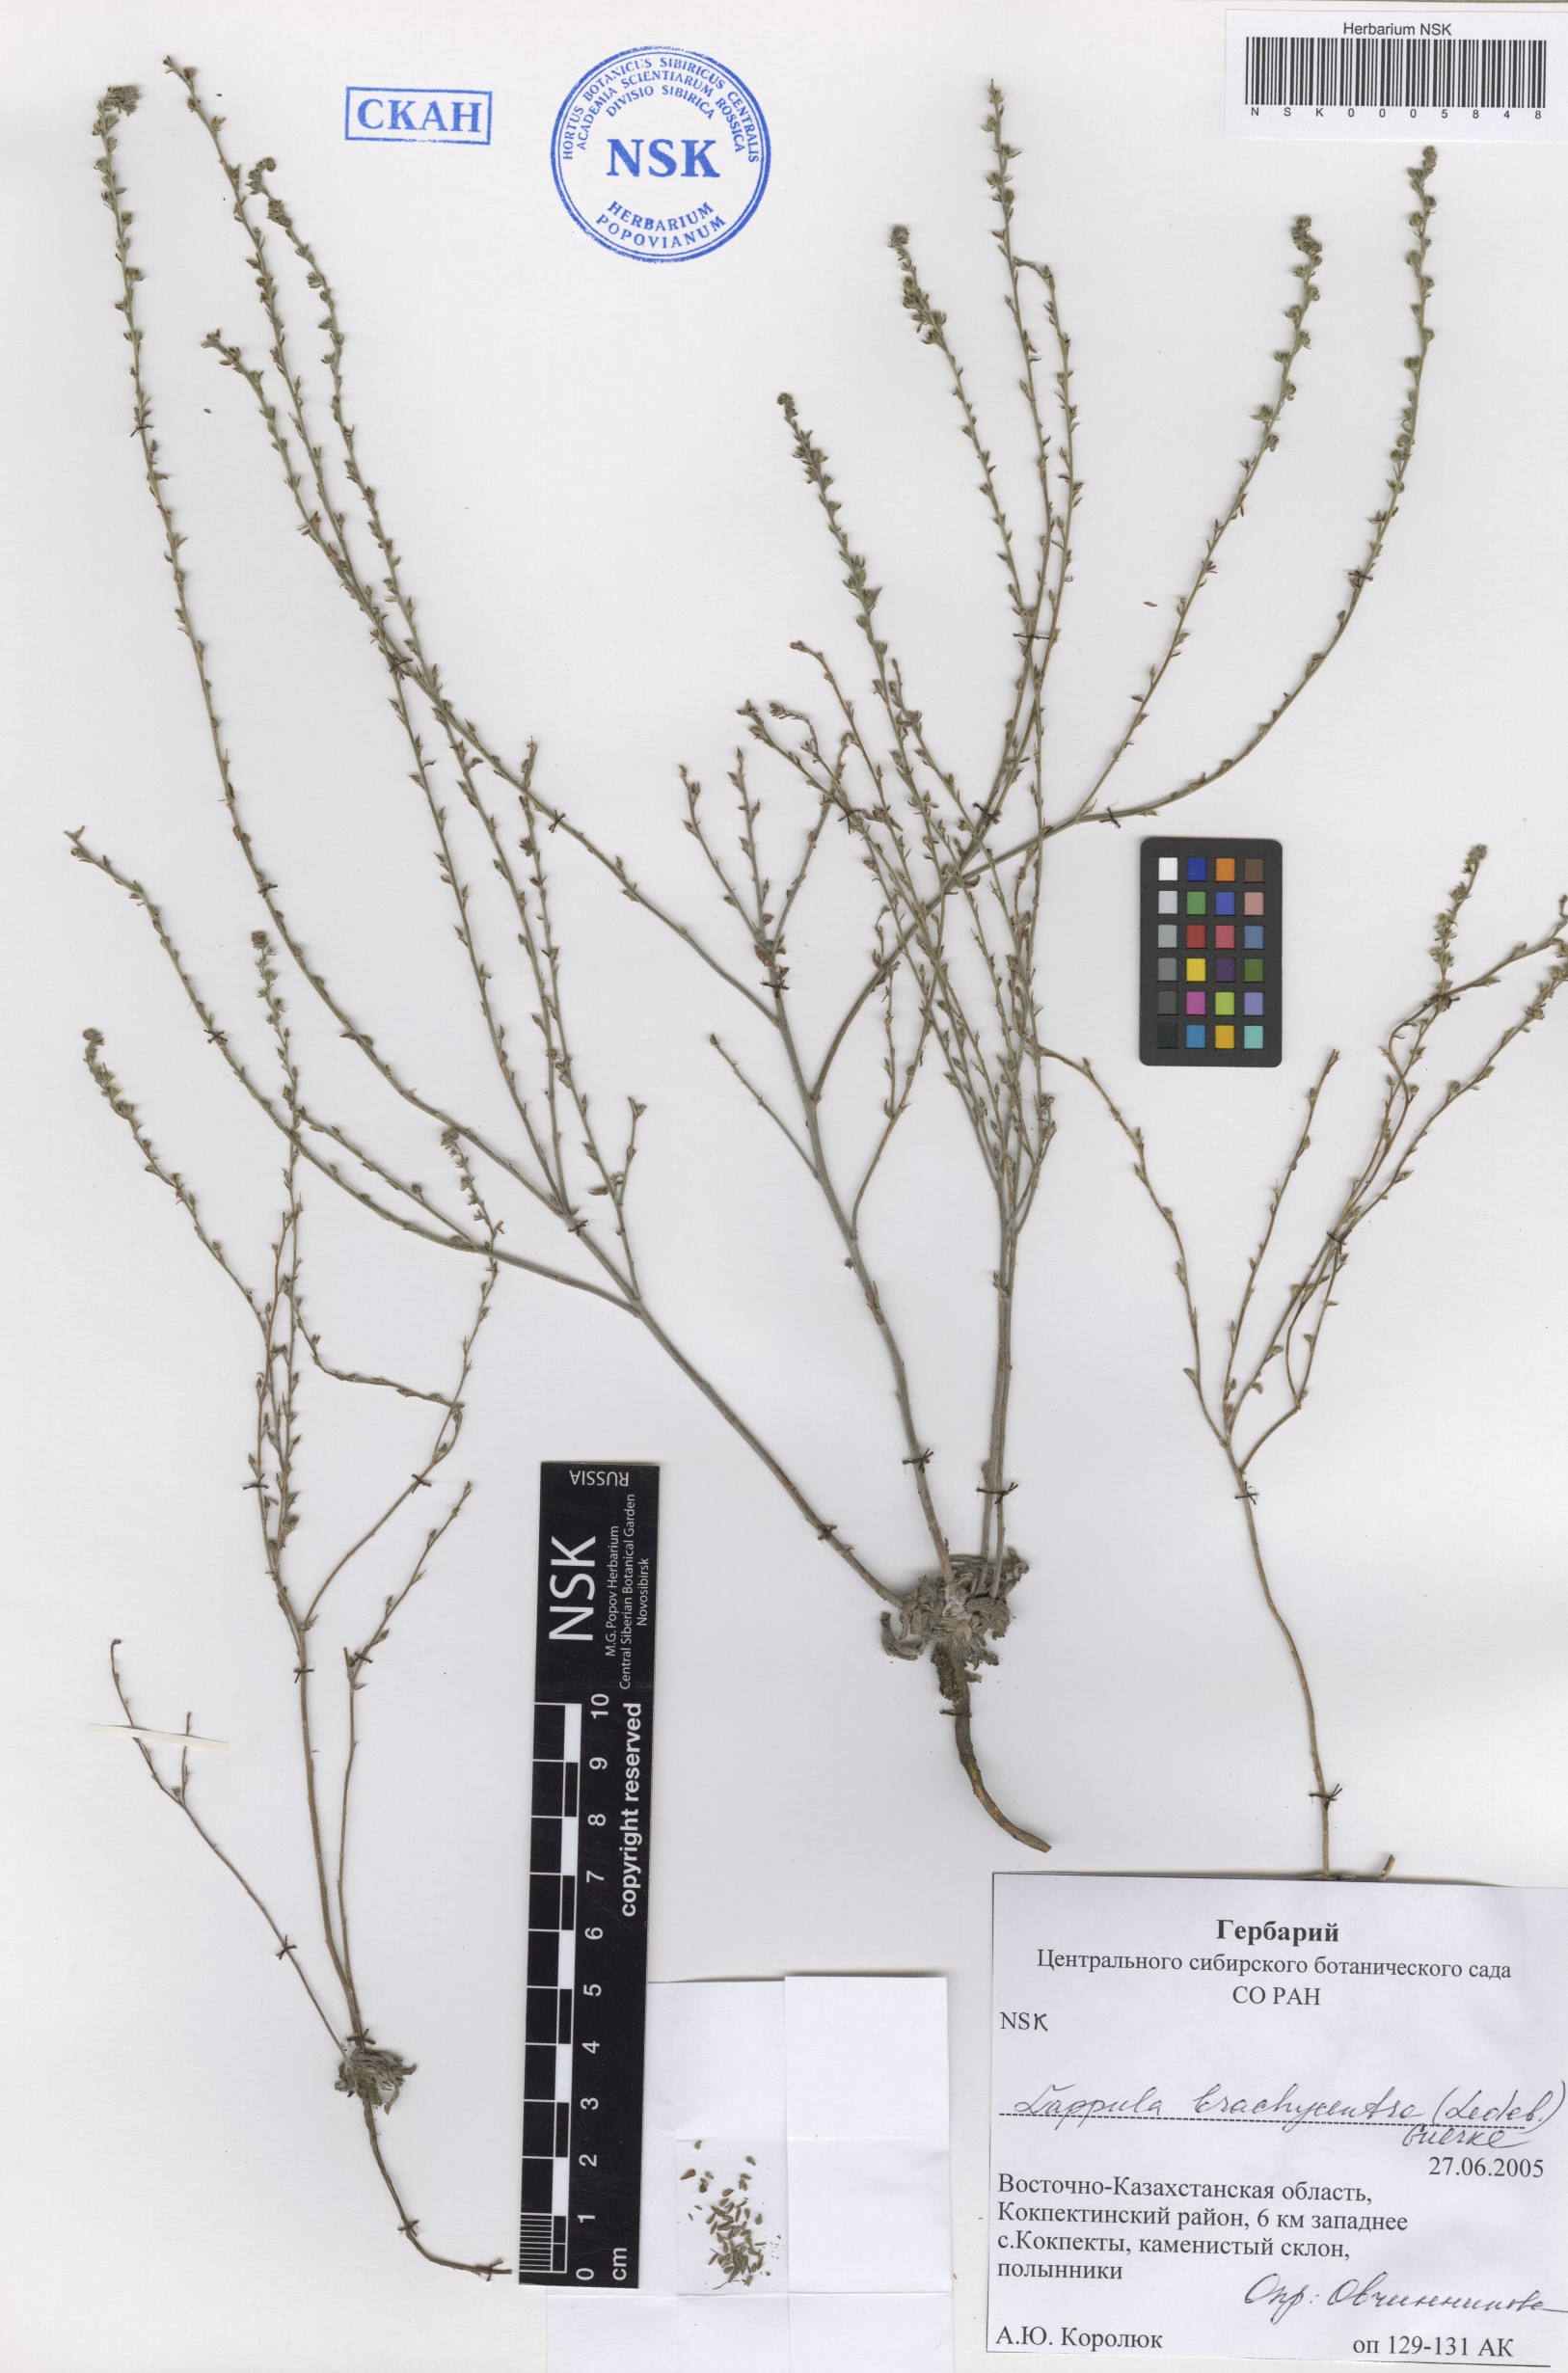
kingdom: Plantae
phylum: Tracheophyta
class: Magnoliopsida
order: Boraginales
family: Boraginaceae
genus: Lappula
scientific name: Lappula brachycentra
